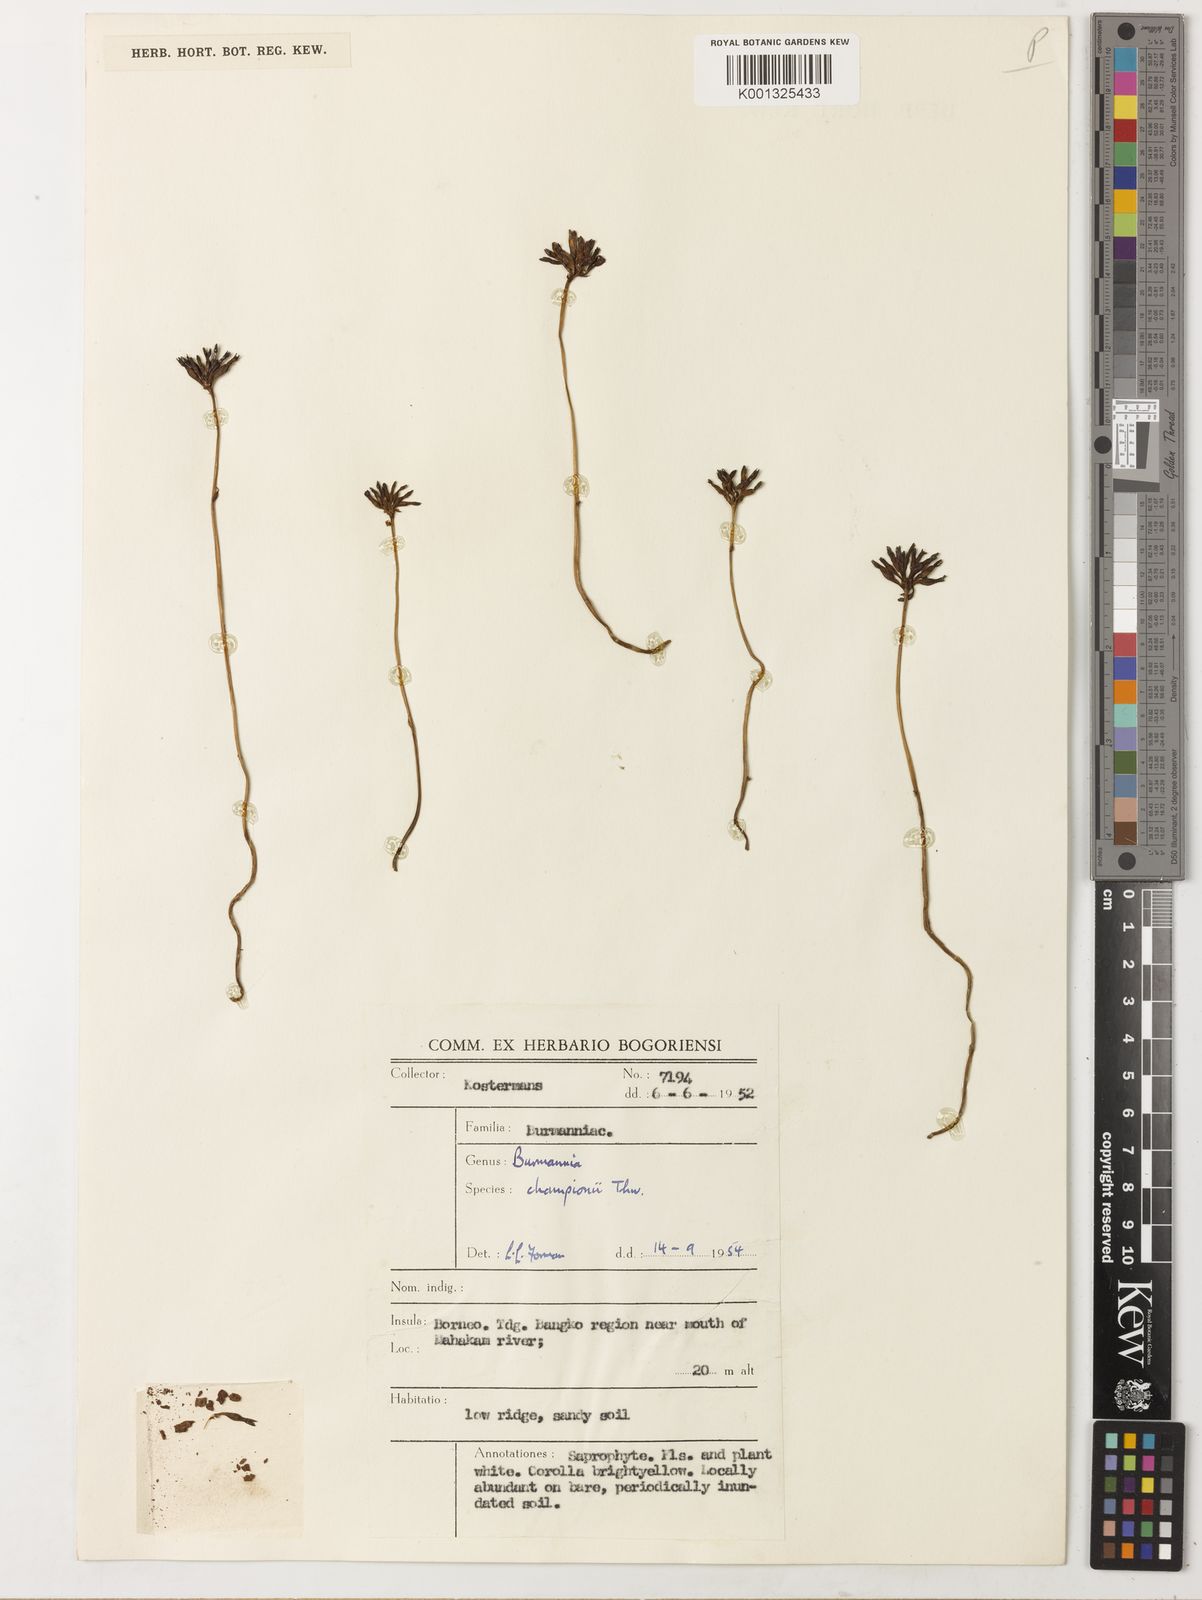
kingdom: Plantae
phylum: Tracheophyta
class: Liliopsida
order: Dioscoreales
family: Burmanniaceae
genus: Burmannia
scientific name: Burmannia championii
